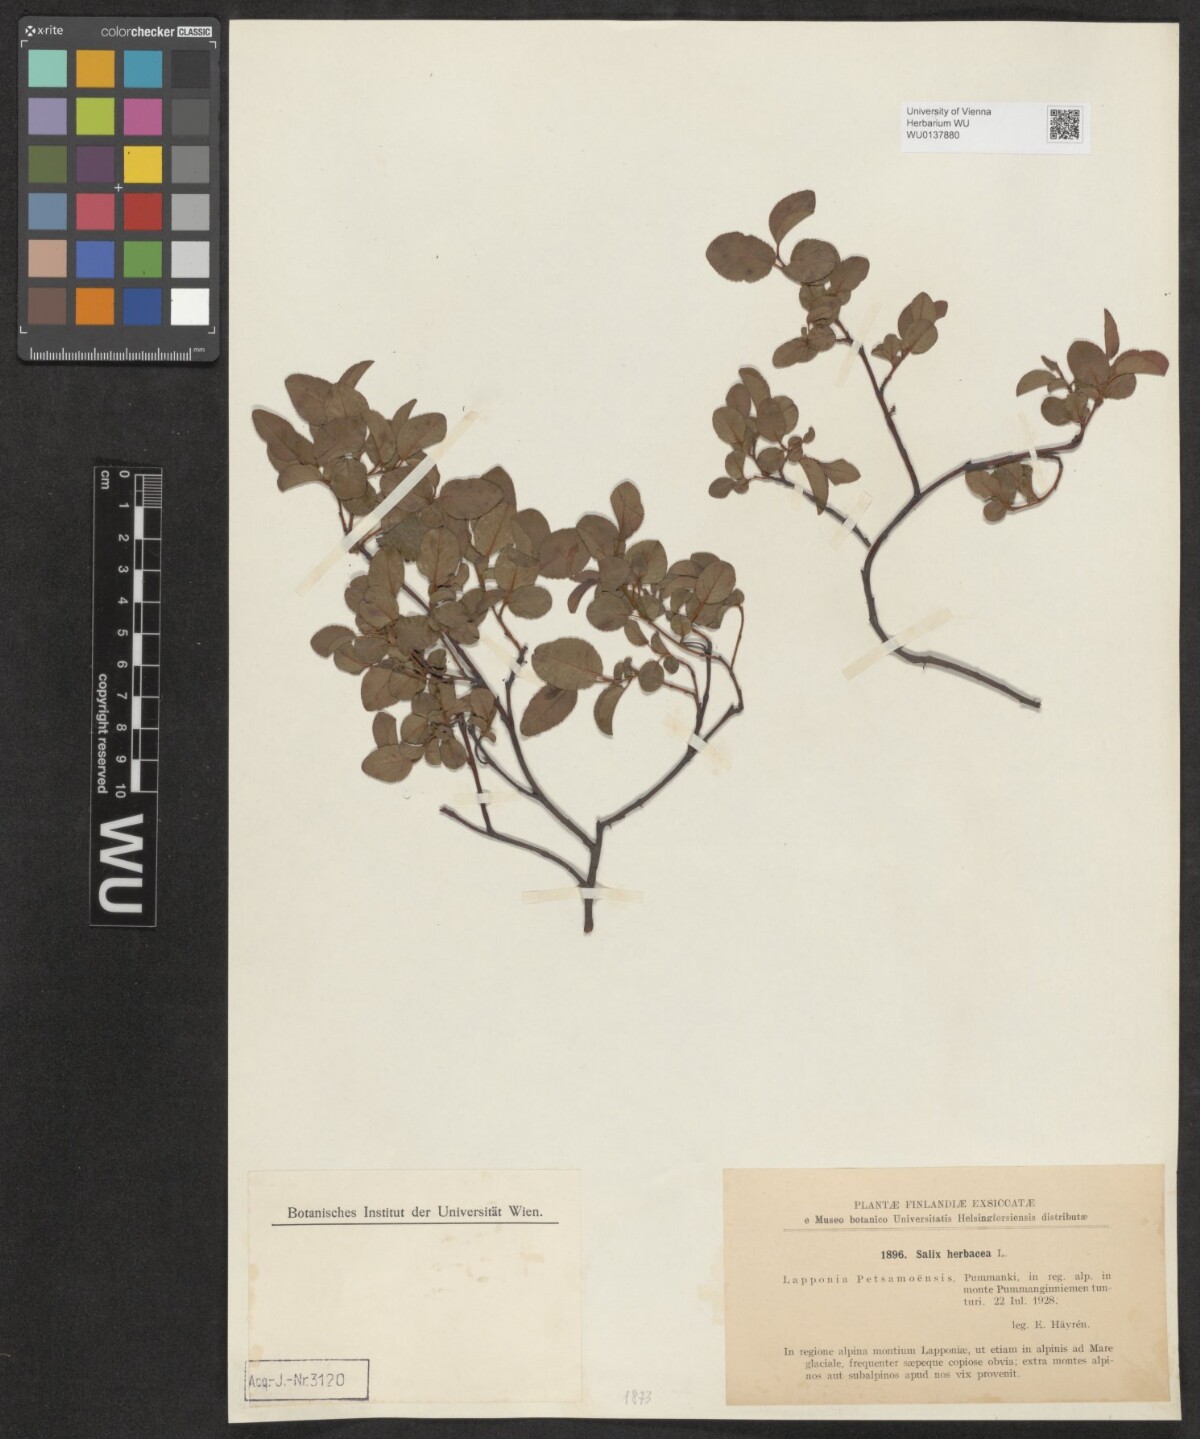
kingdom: Plantae
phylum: Tracheophyta
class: Magnoliopsida
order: Malpighiales
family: Salicaceae
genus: Salix
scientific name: Salix herbacea
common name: Dwarf willow
